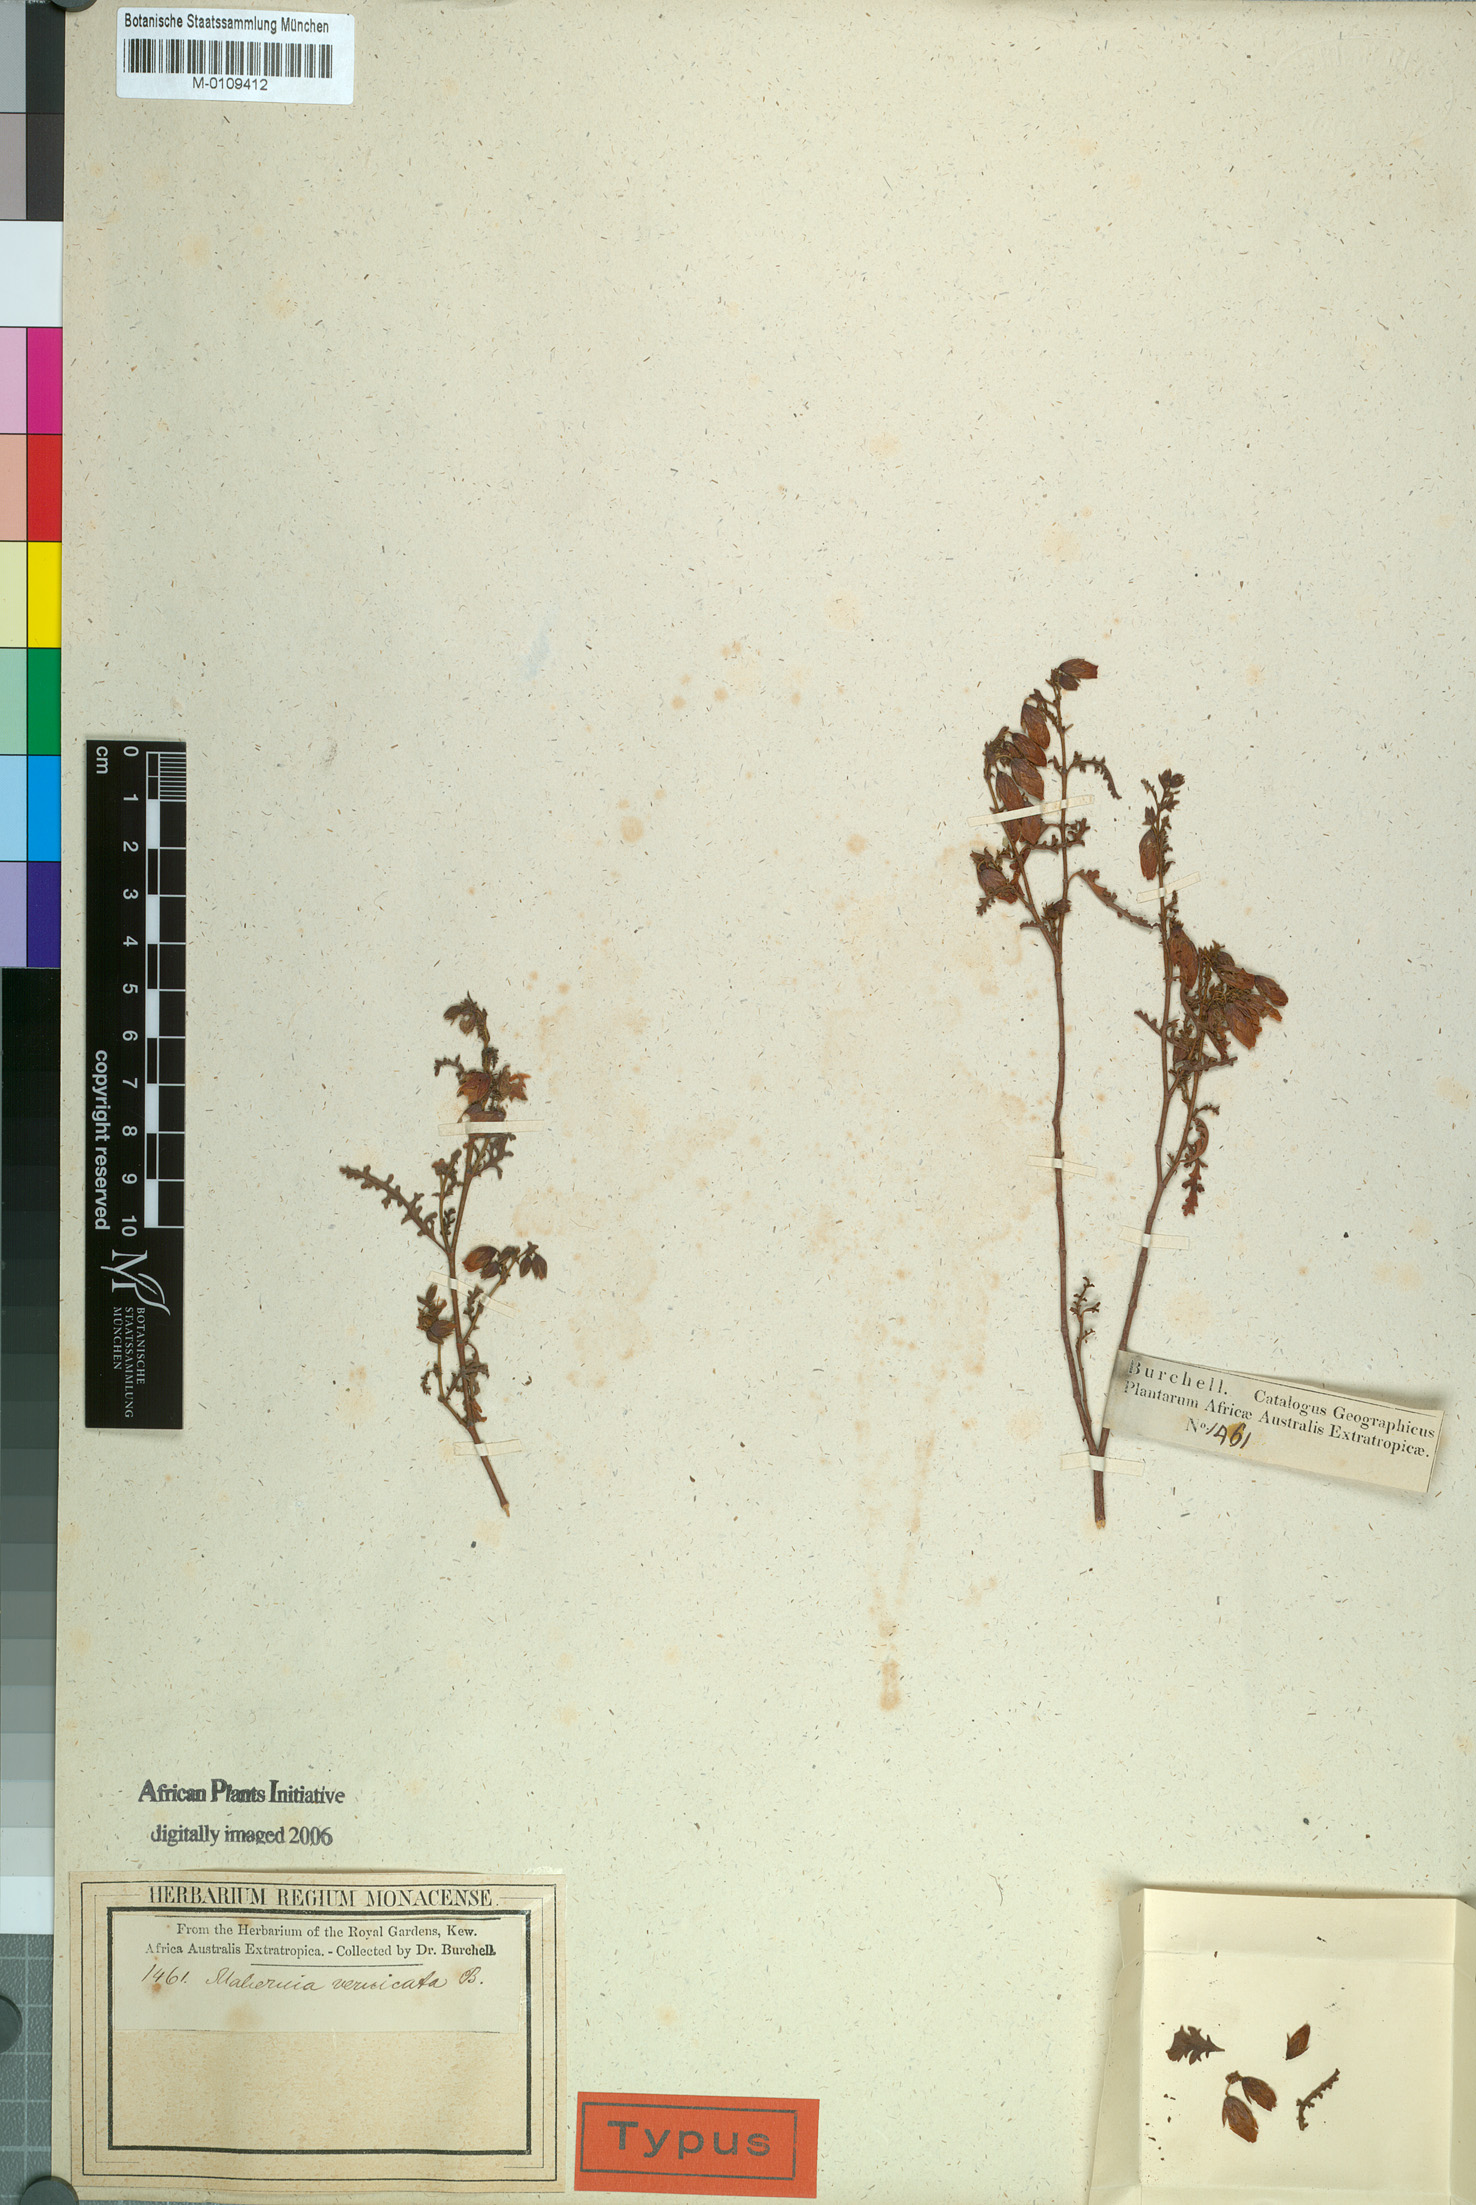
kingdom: Plantae
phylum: Tracheophyta
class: Magnoliopsida
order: Malvales
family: Malvaceae
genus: Hermannia
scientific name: Hermannia pulchella
